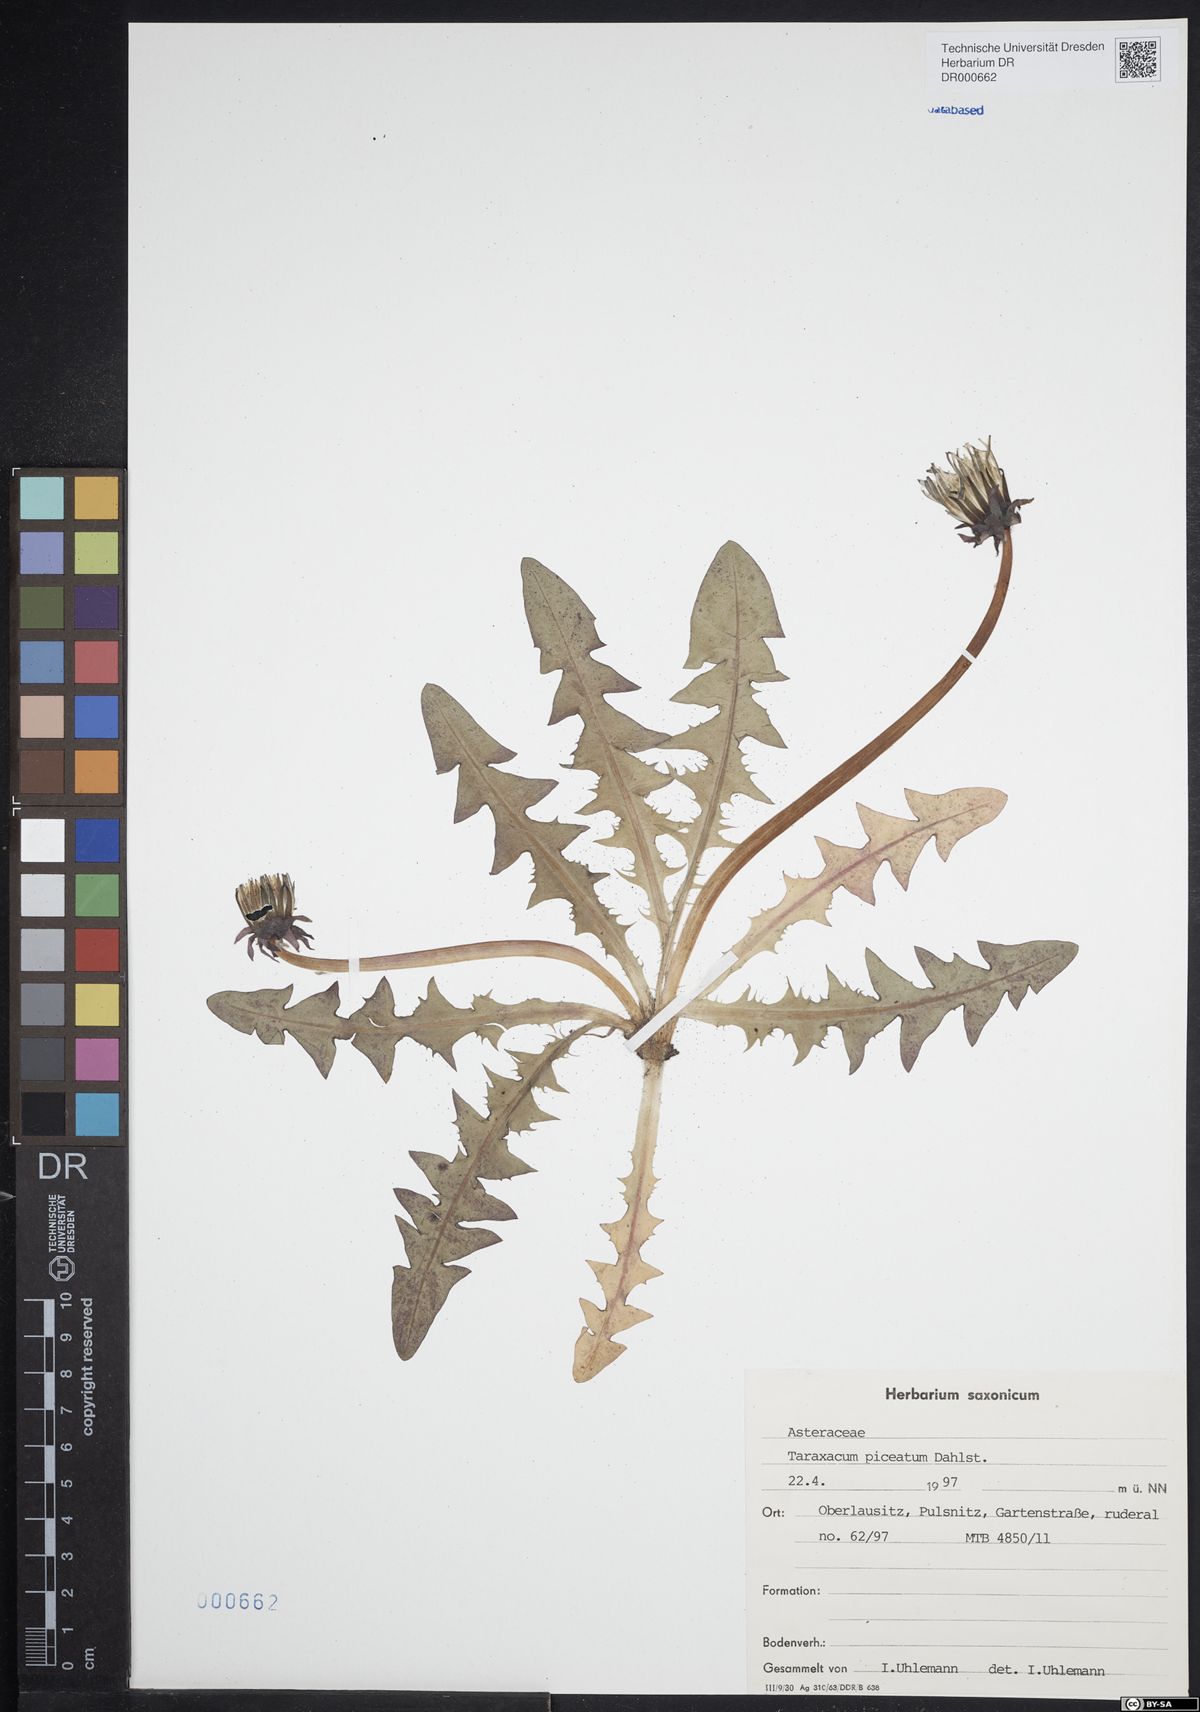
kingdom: Plantae
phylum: Tracheophyta
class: Magnoliopsida
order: Asterales
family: Asteraceae
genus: Taraxacum
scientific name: Taraxacum piceatum
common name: Leaden-bracted dandelion
